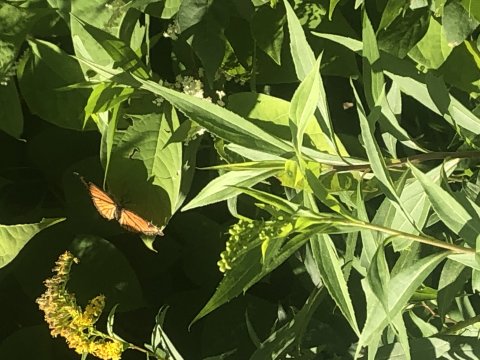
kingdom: Animalia
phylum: Arthropoda
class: Insecta
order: Lepidoptera
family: Nymphalidae
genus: Limenitis
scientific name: Limenitis archippus
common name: Viceroy
